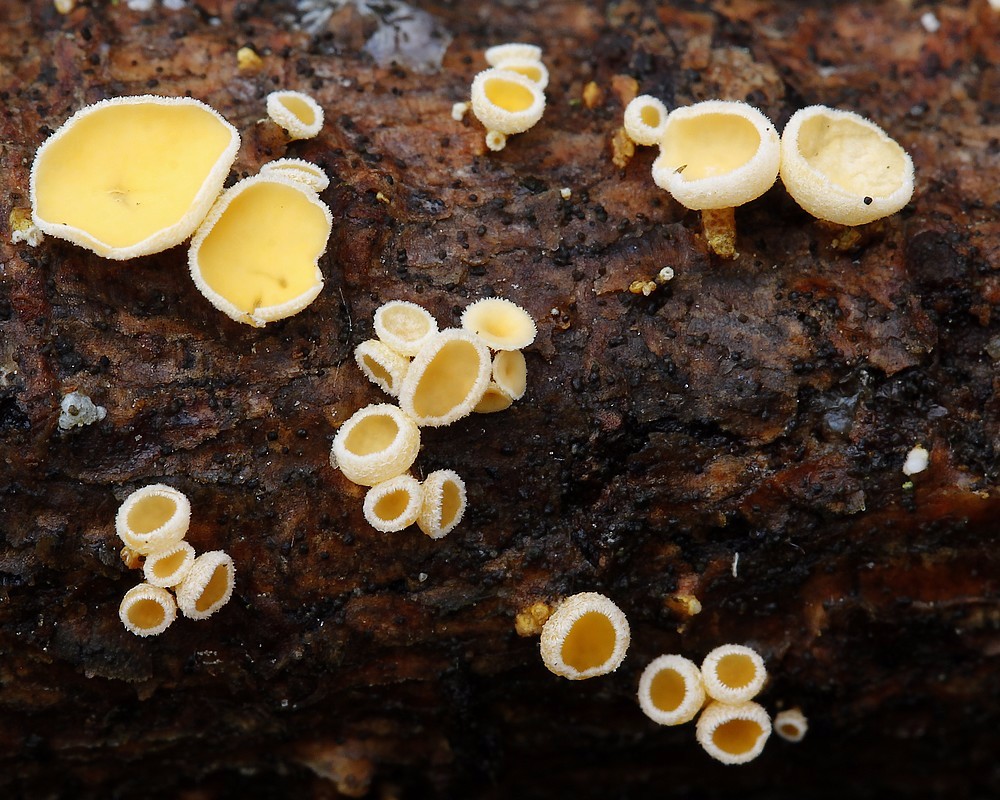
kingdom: Fungi
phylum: Ascomycota
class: Leotiomycetes
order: Helotiales
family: Lachnaceae
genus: Lachnellula
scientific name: Lachnellula subtilissima
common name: gran-frynseskive
